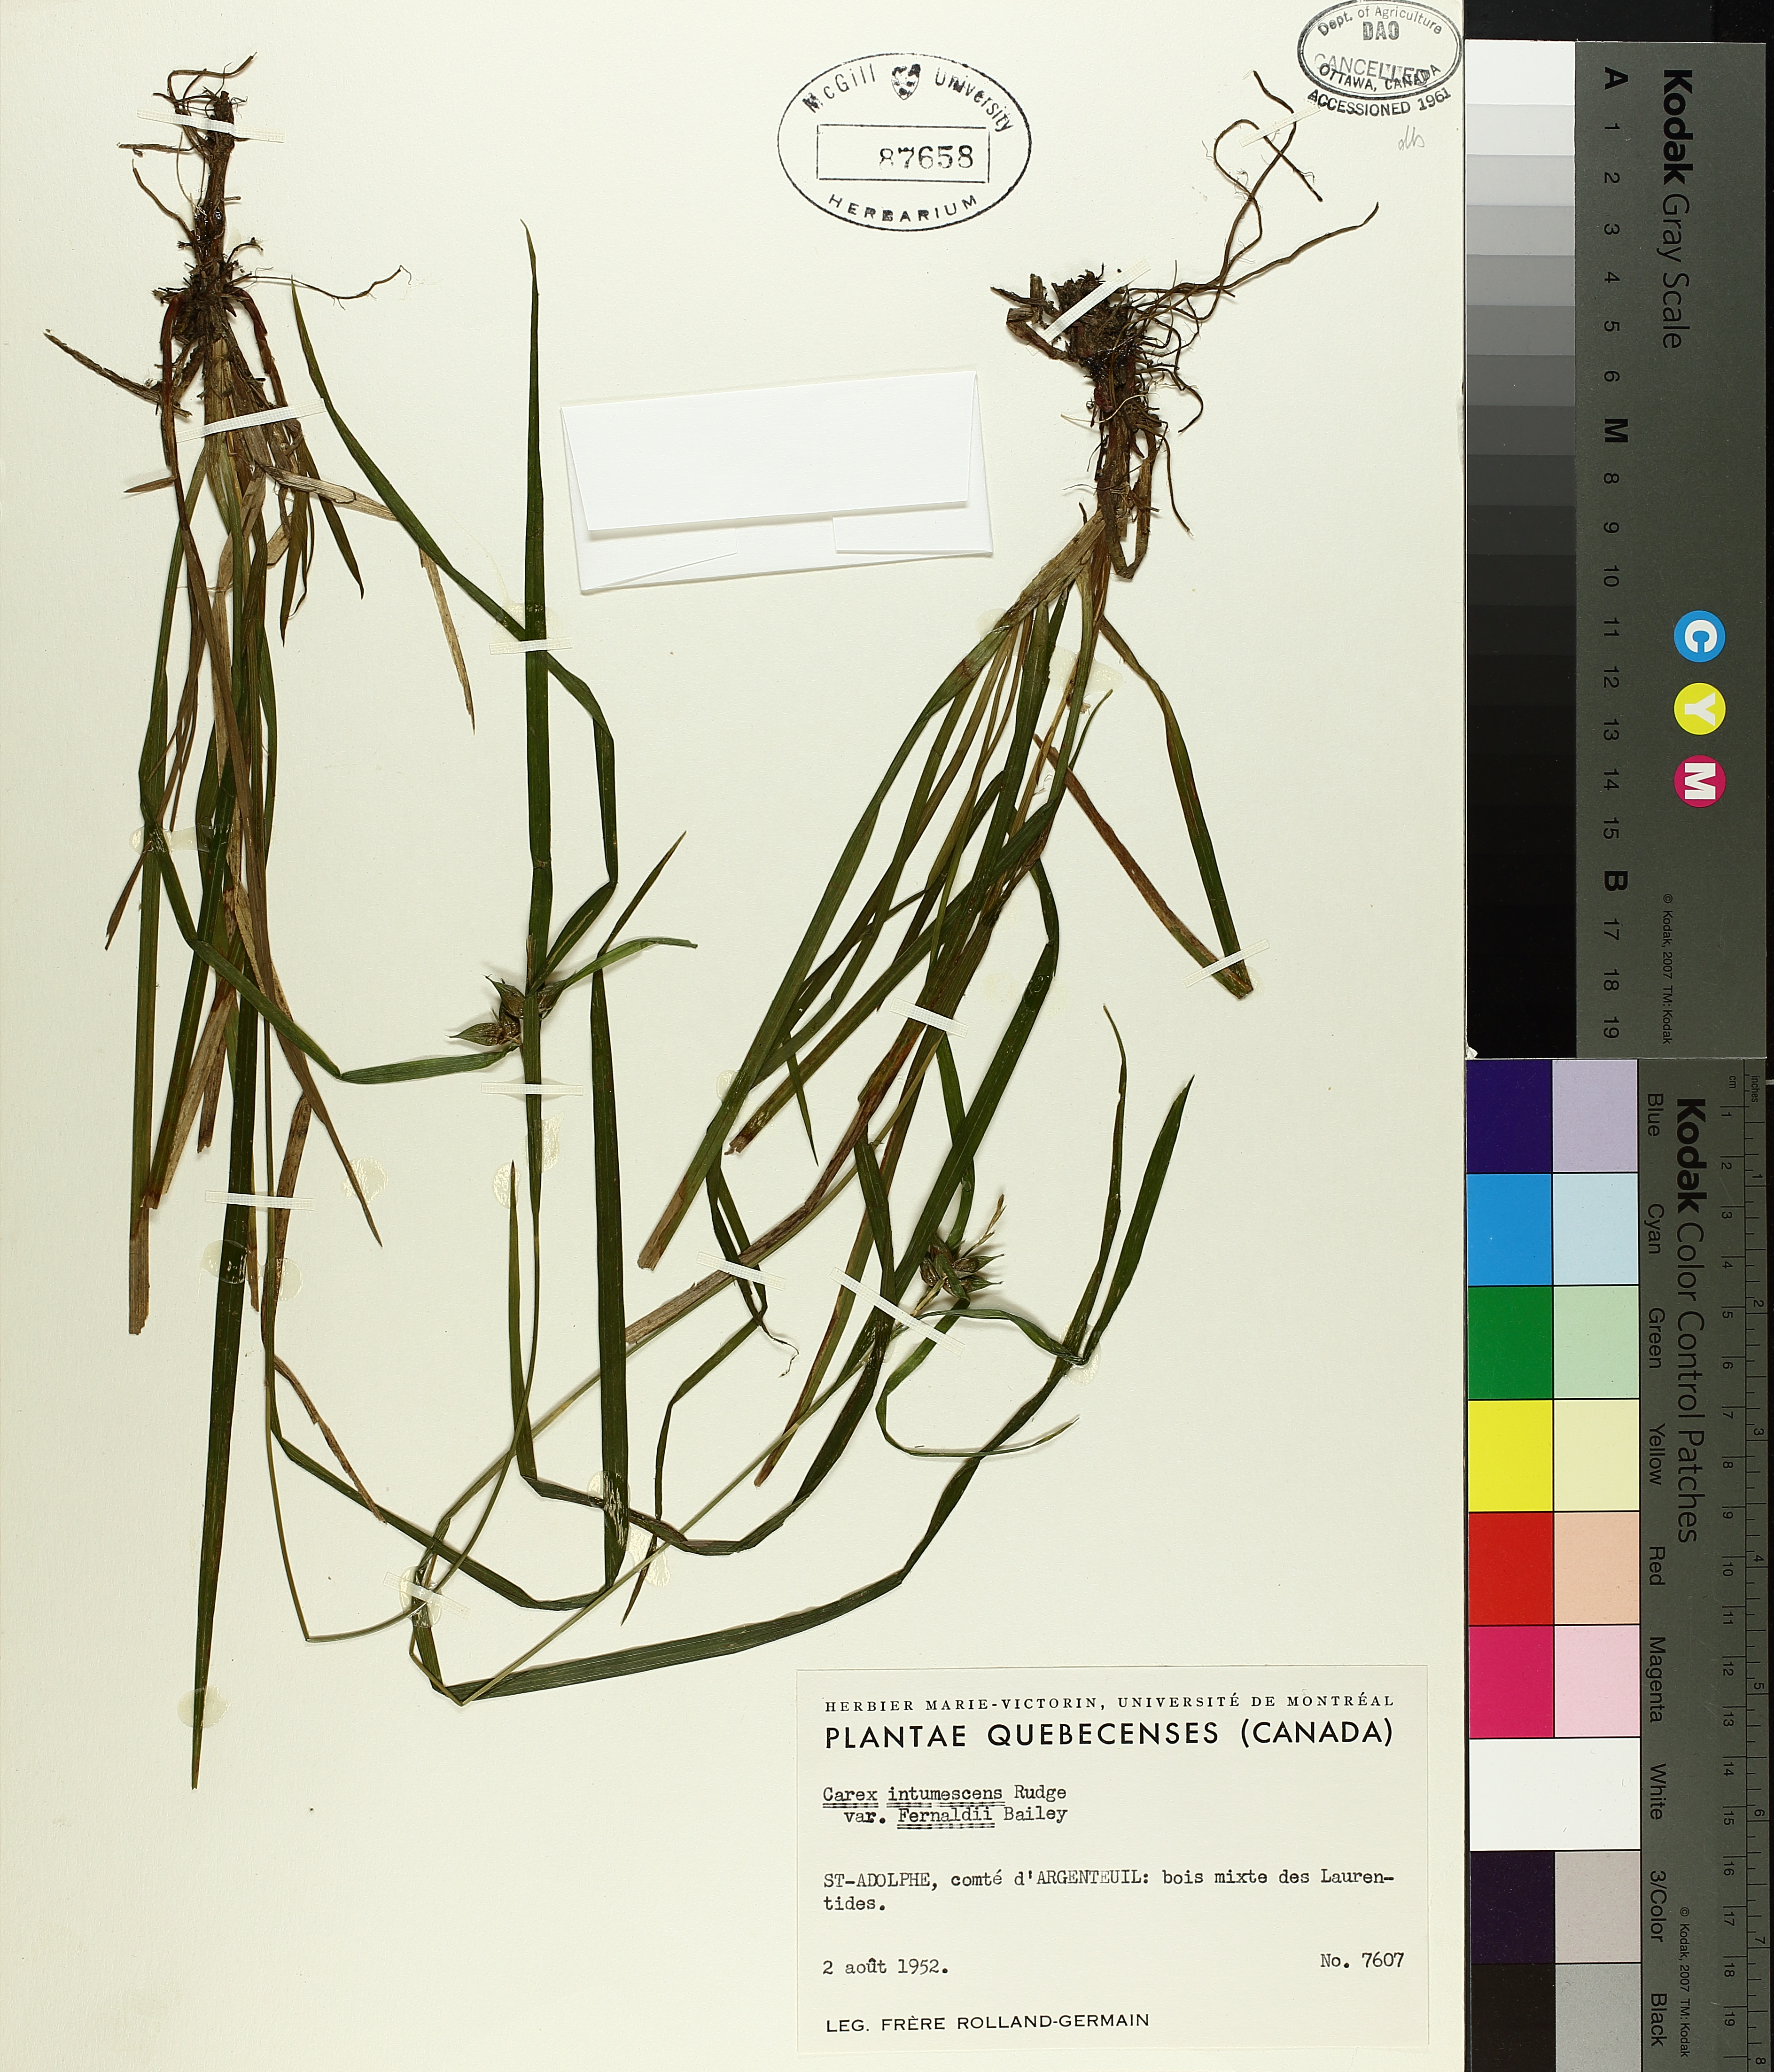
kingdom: Plantae
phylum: Tracheophyta
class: Liliopsida
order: Poales
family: Cyperaceae
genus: Carex
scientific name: Carex intumescens
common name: Greater bladder sedge
